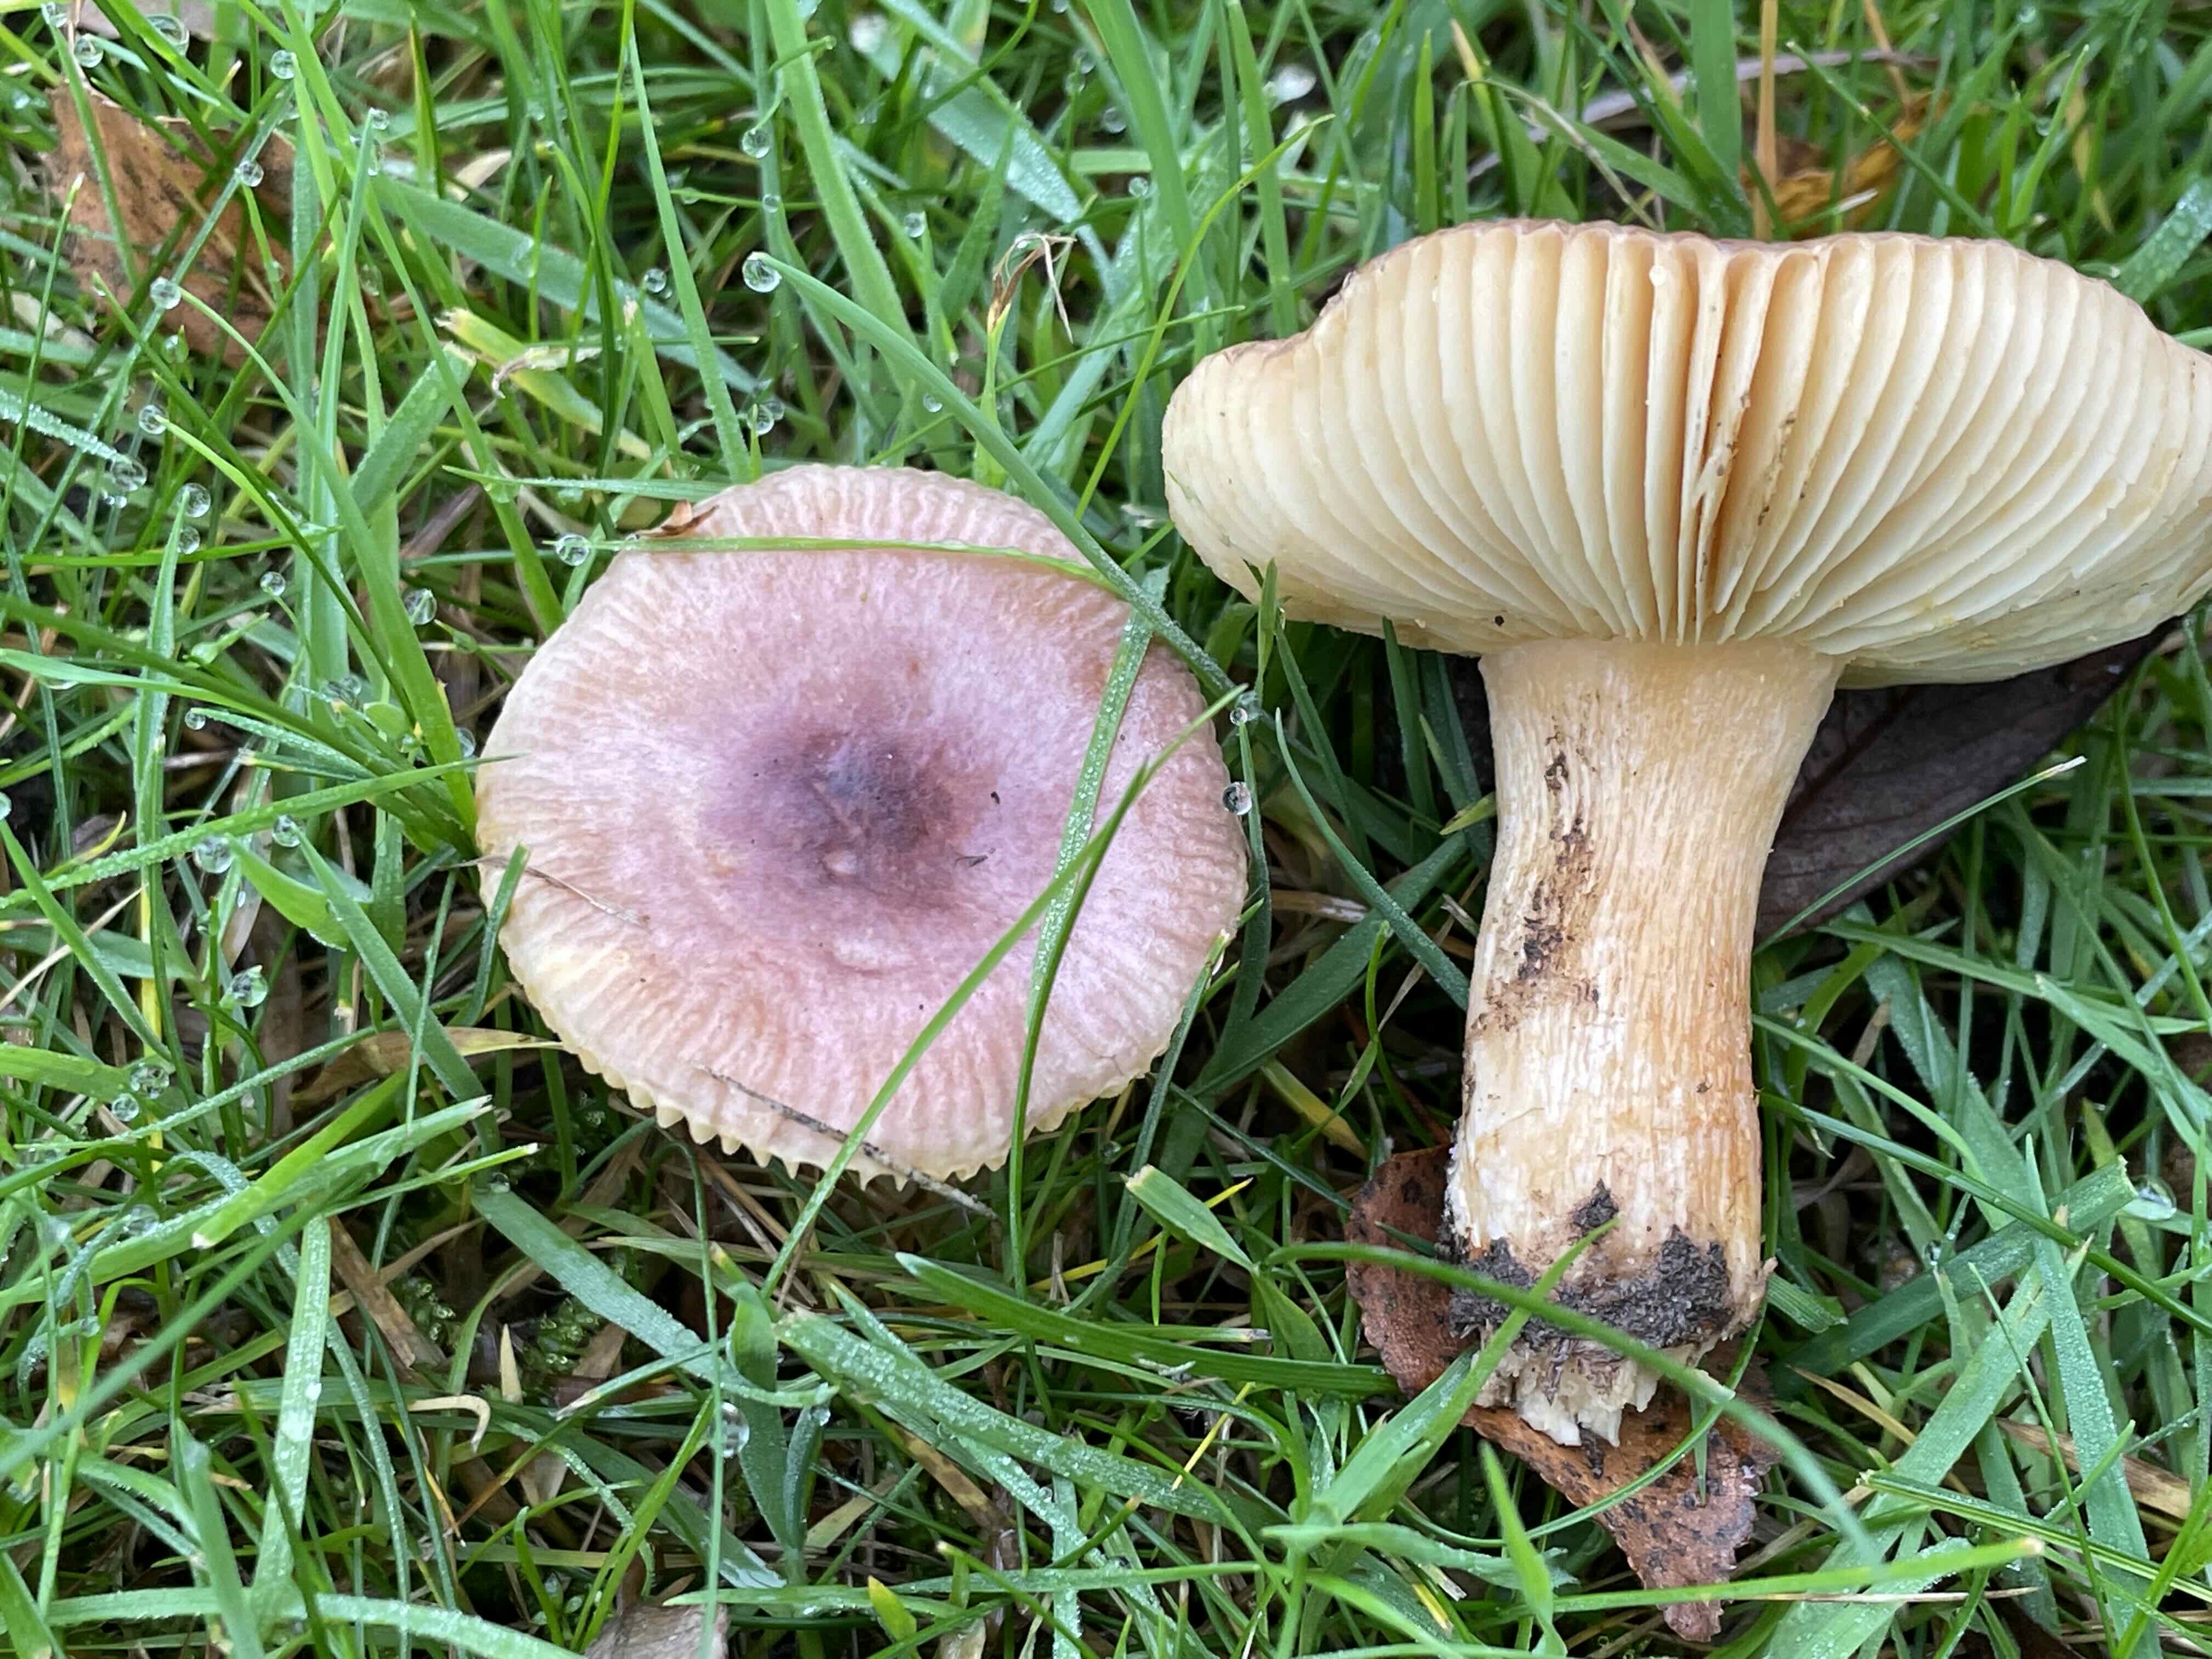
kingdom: Fungi
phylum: Basidiomycota
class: Agaricomycetes
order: Russulales
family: Russulaceae
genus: Russula
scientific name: Russula puellaris
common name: gulstokket skørhat
